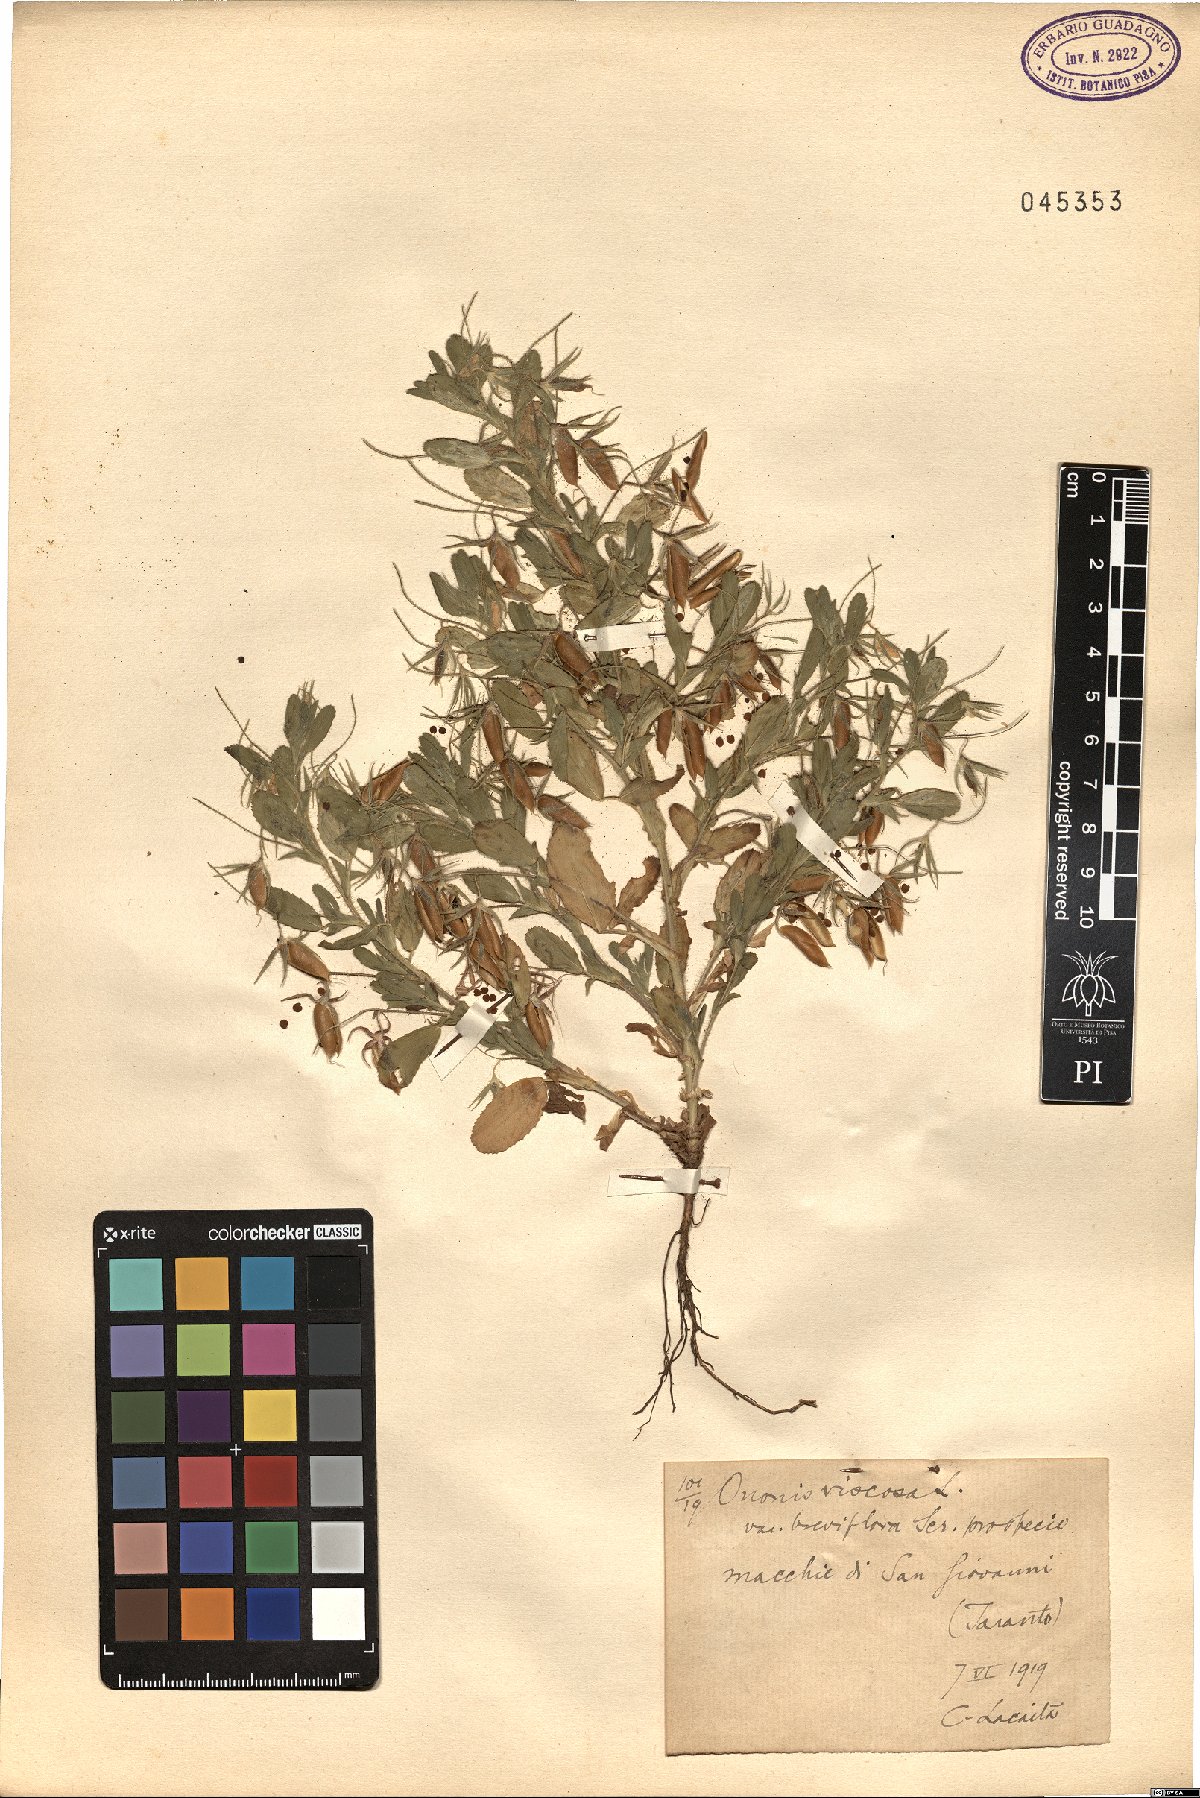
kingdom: Plantae
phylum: Tracheophyta
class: Magnoliopsida
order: Fabales
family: Fabaceae
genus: Ononis
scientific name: Ononis viscosa
